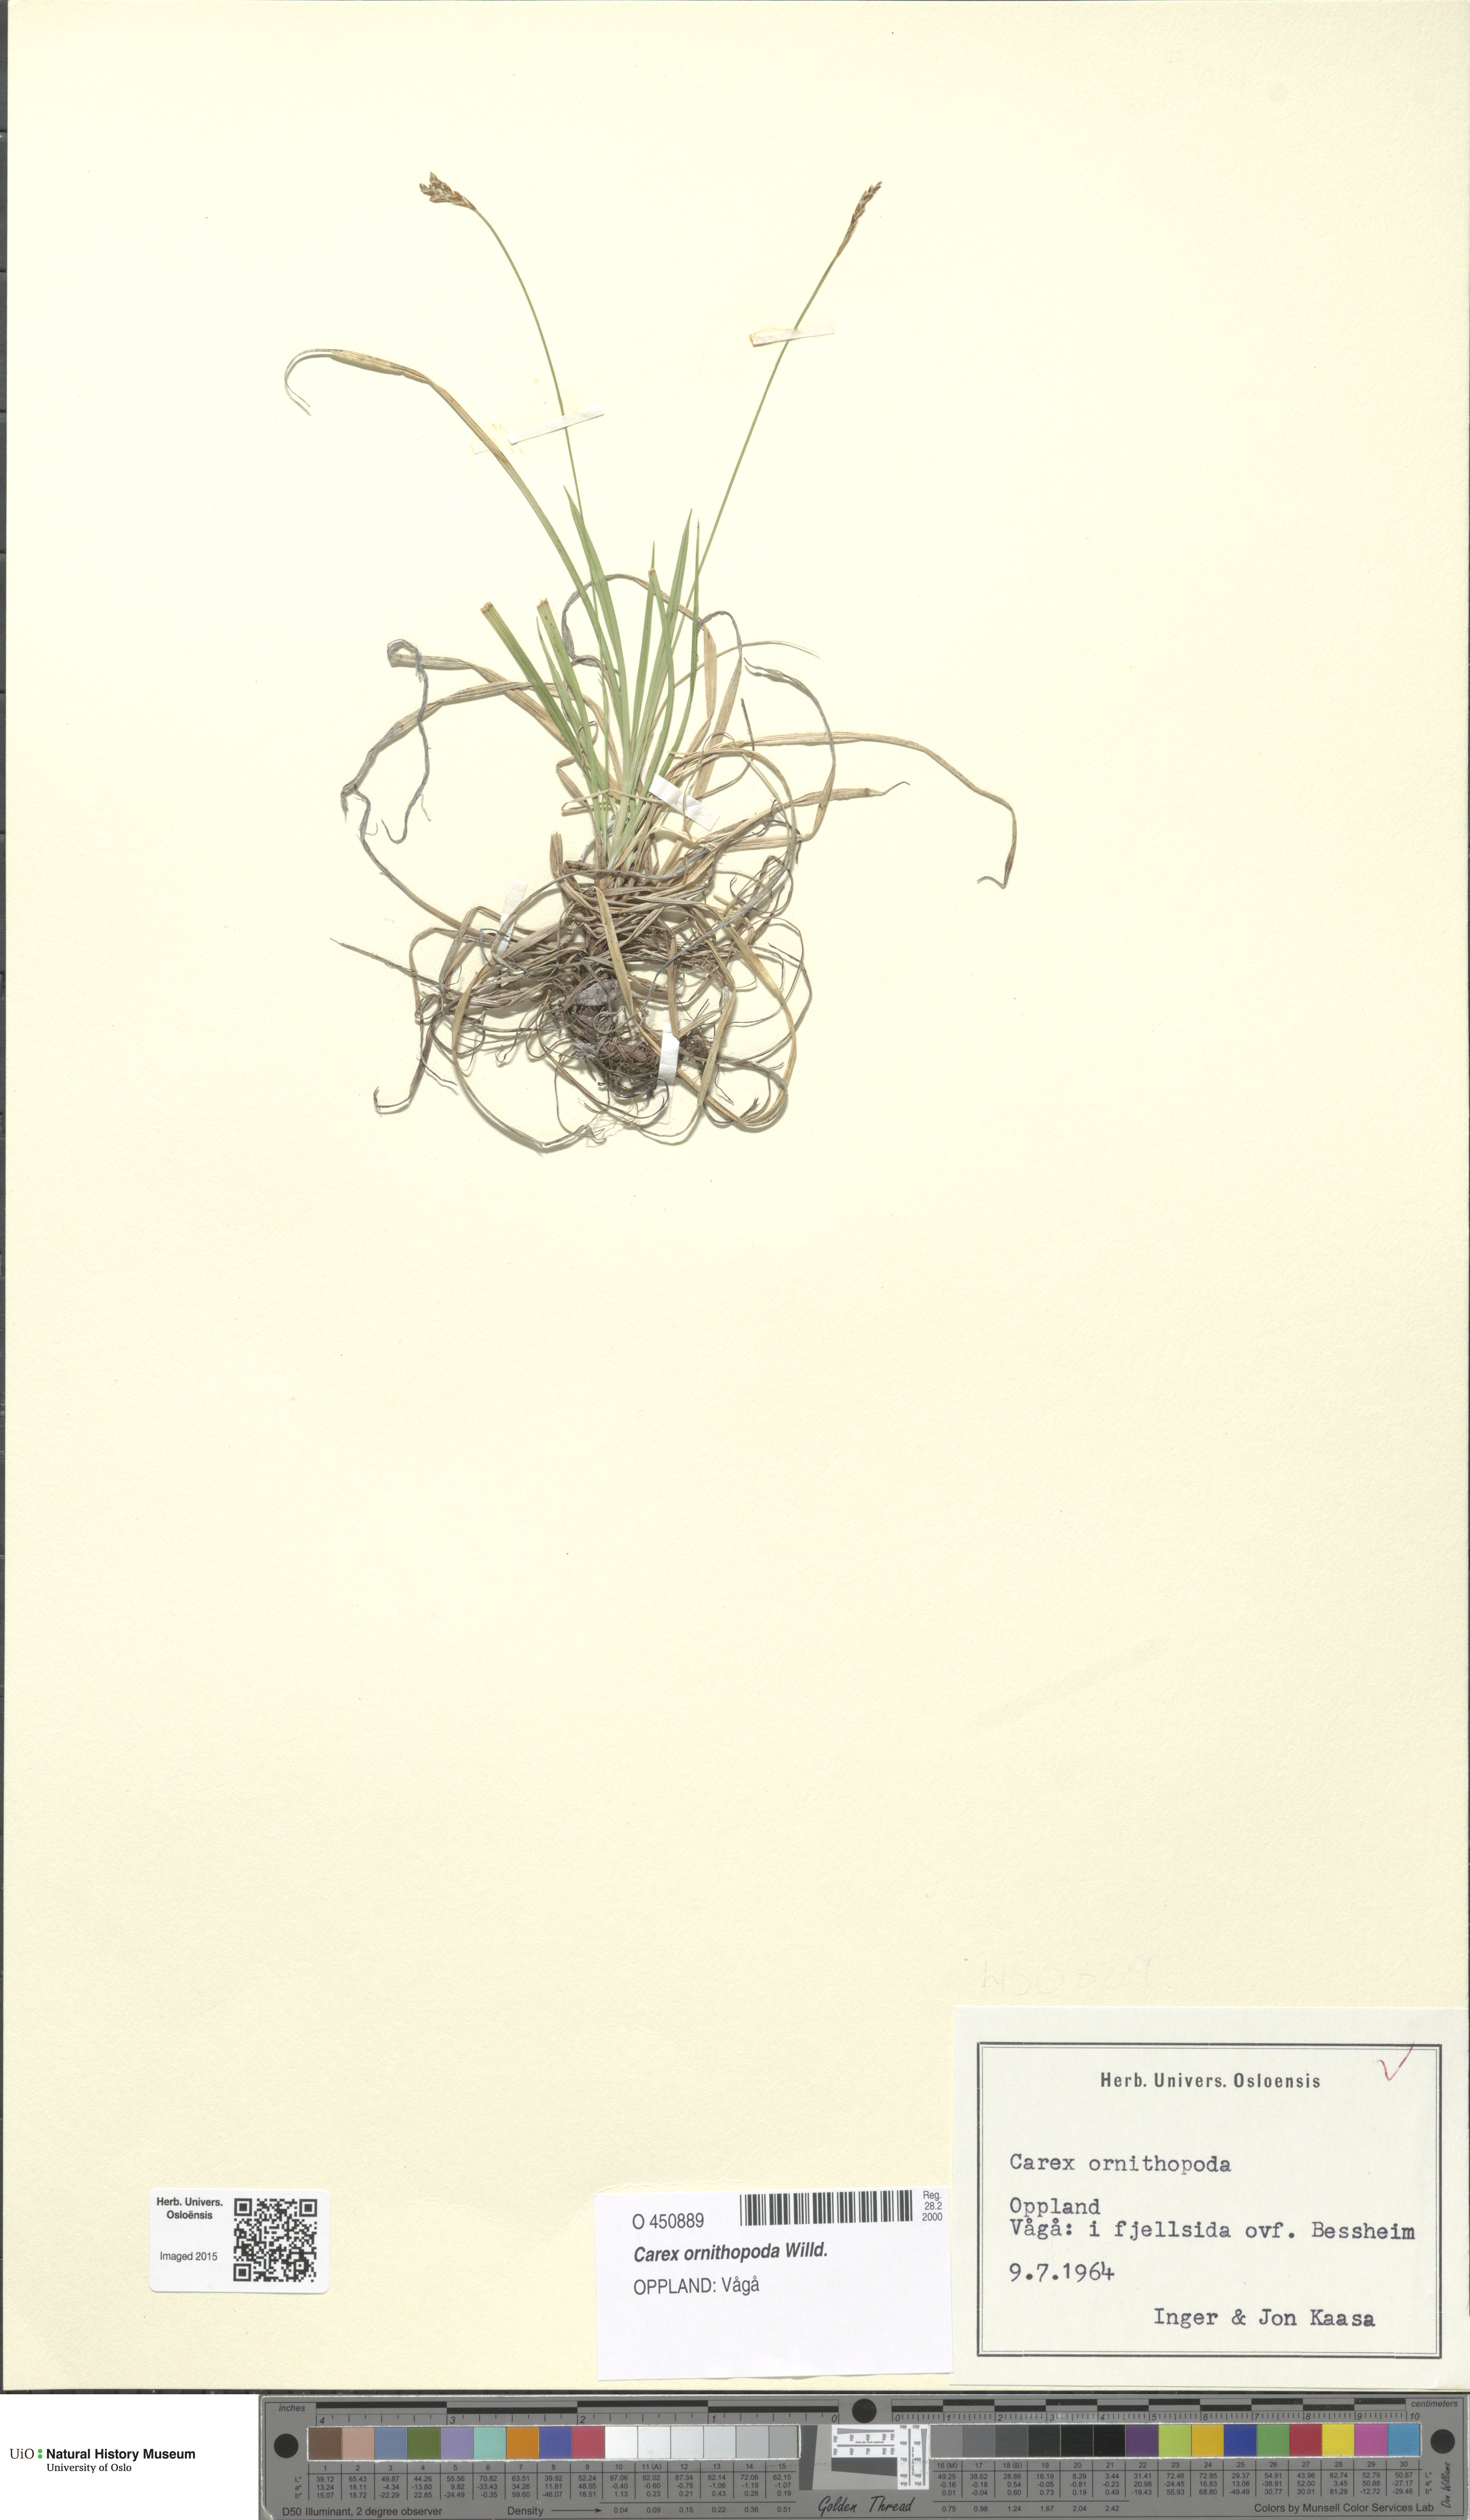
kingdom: Plantae
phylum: Tracheophyta
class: Liliopsida
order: Poales
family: Cyperaceae
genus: Carex
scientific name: Carex ornithopoda
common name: Bird's-foot sedge
